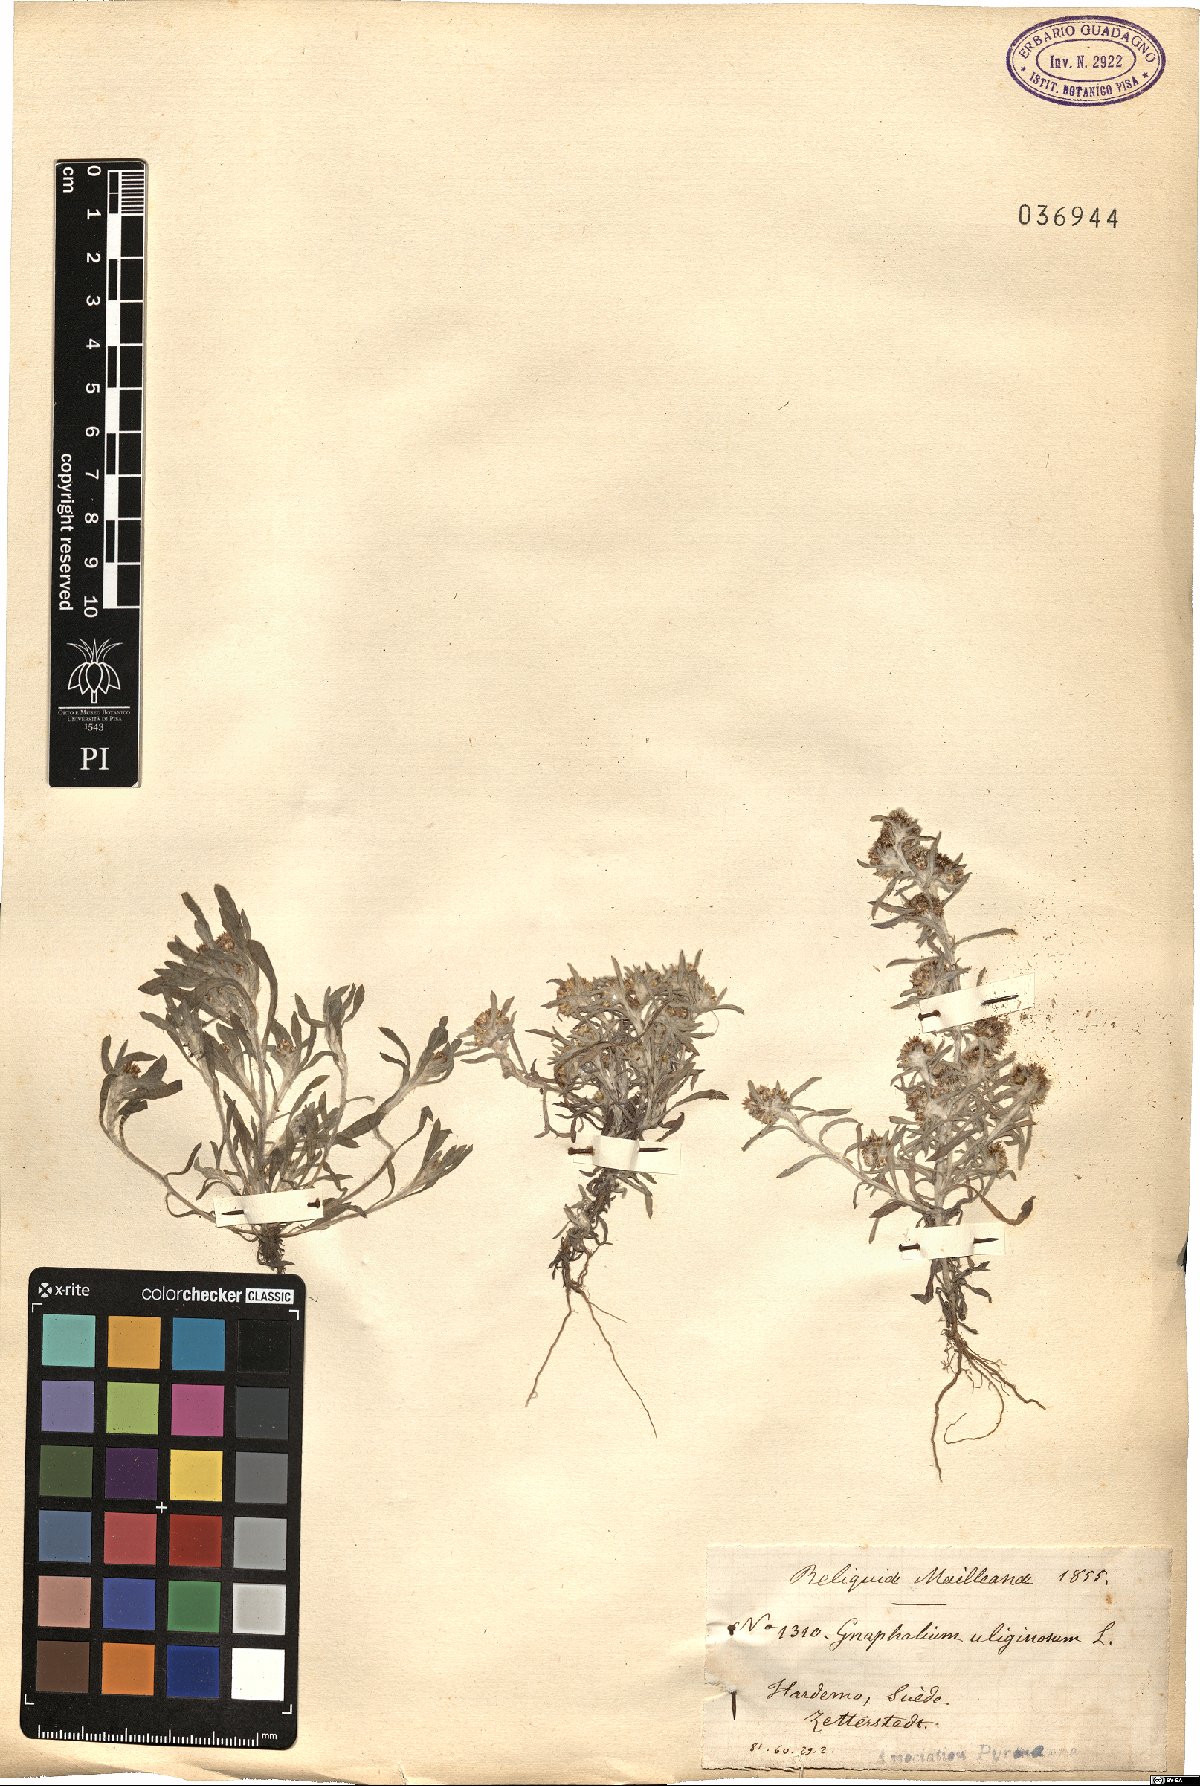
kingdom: Plantae
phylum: Tracheophyta
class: Magnoliopsida
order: Asterales
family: Asteraceae
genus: Gnaphalium
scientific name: Gnaphalium uliginosum
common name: Marsh cudweed
